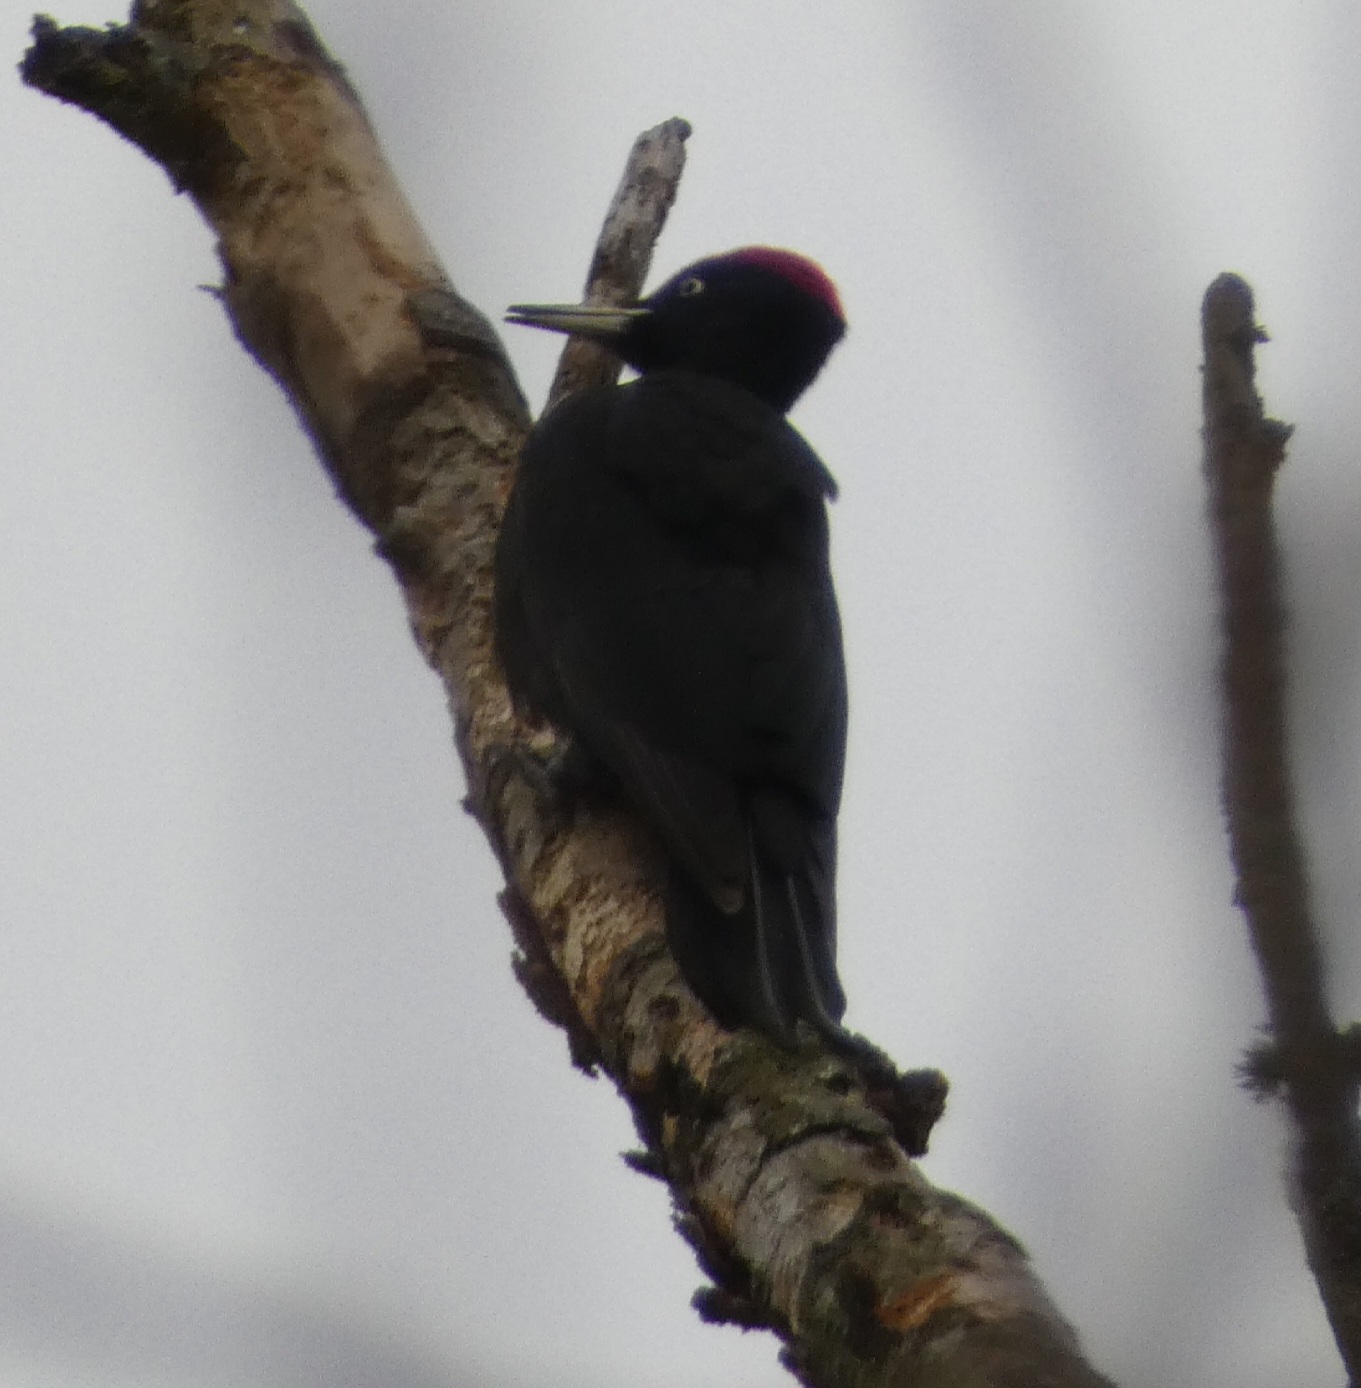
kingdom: Animalia
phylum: Chordata
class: Aves
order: Piciformes
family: Picidae
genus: Dryocopus
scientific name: Dryocopus martius
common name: Sortspætte
